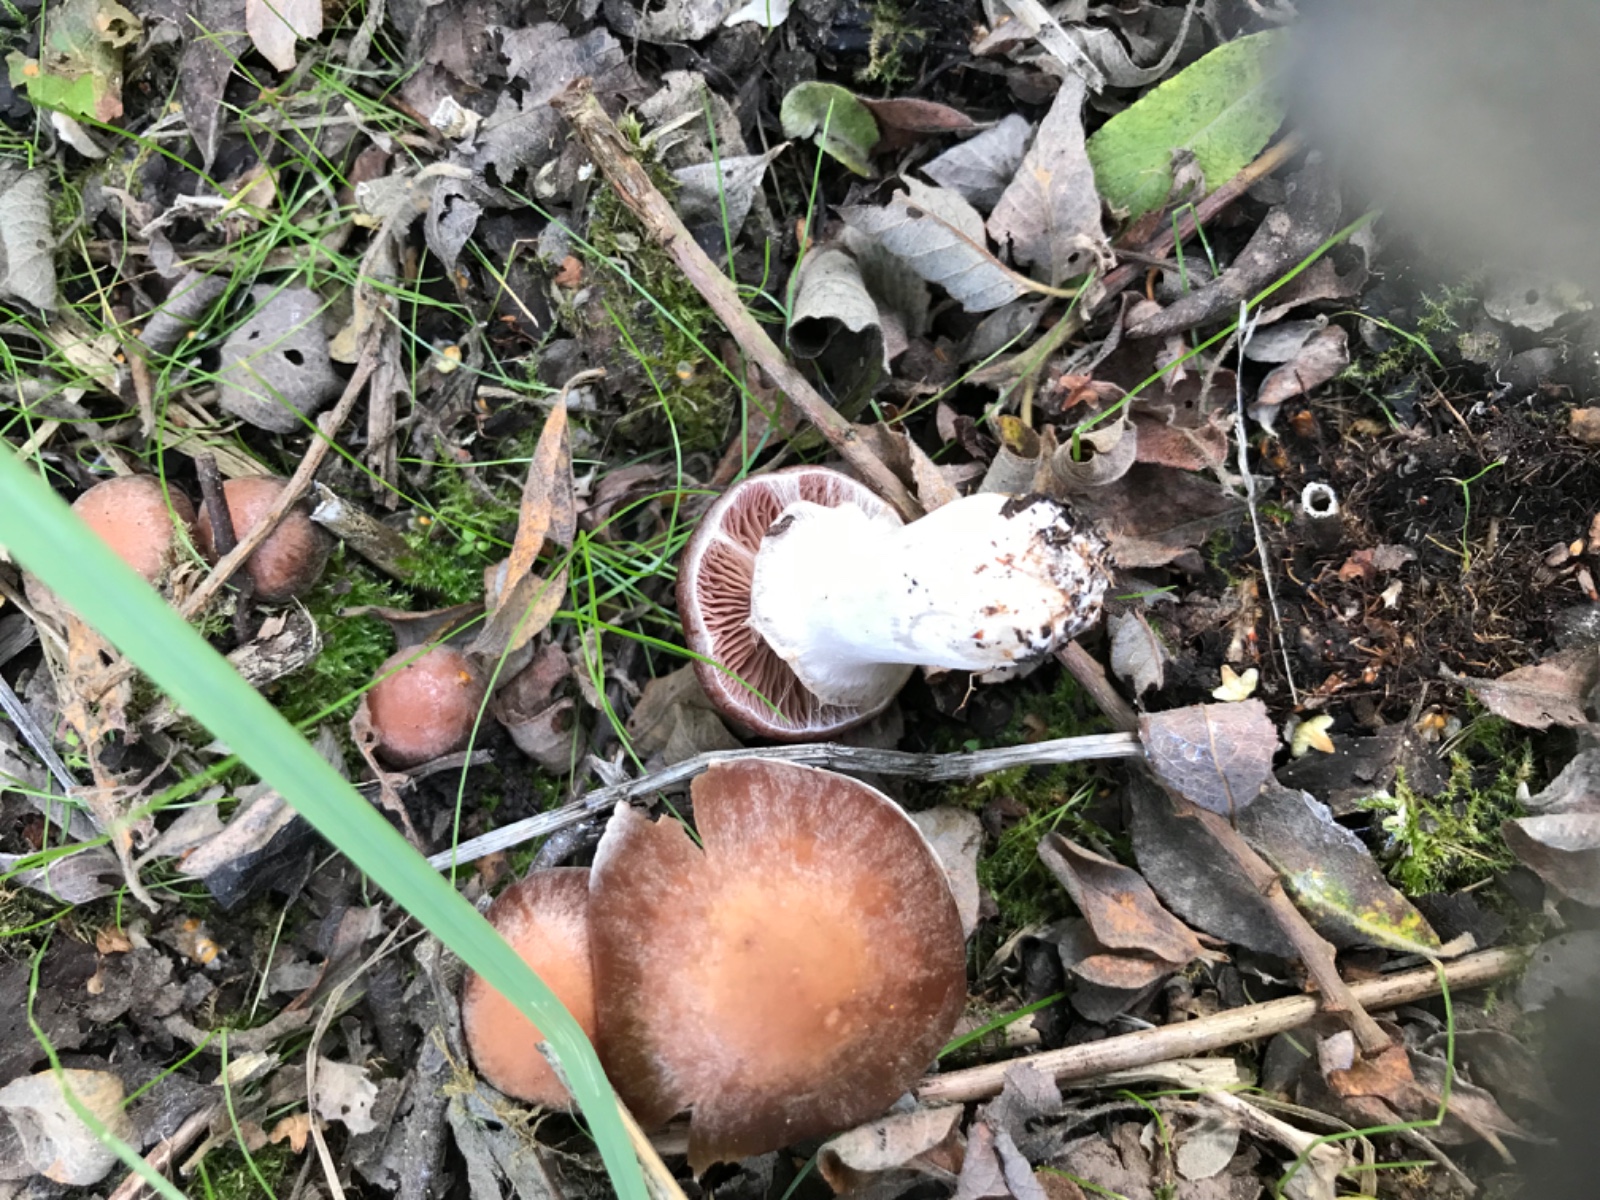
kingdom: Fungi
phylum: Basidiomycota
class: Agaricomycetes
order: Agaricales
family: Cortinariaceae
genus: Cortinarius
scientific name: Cortinarius
